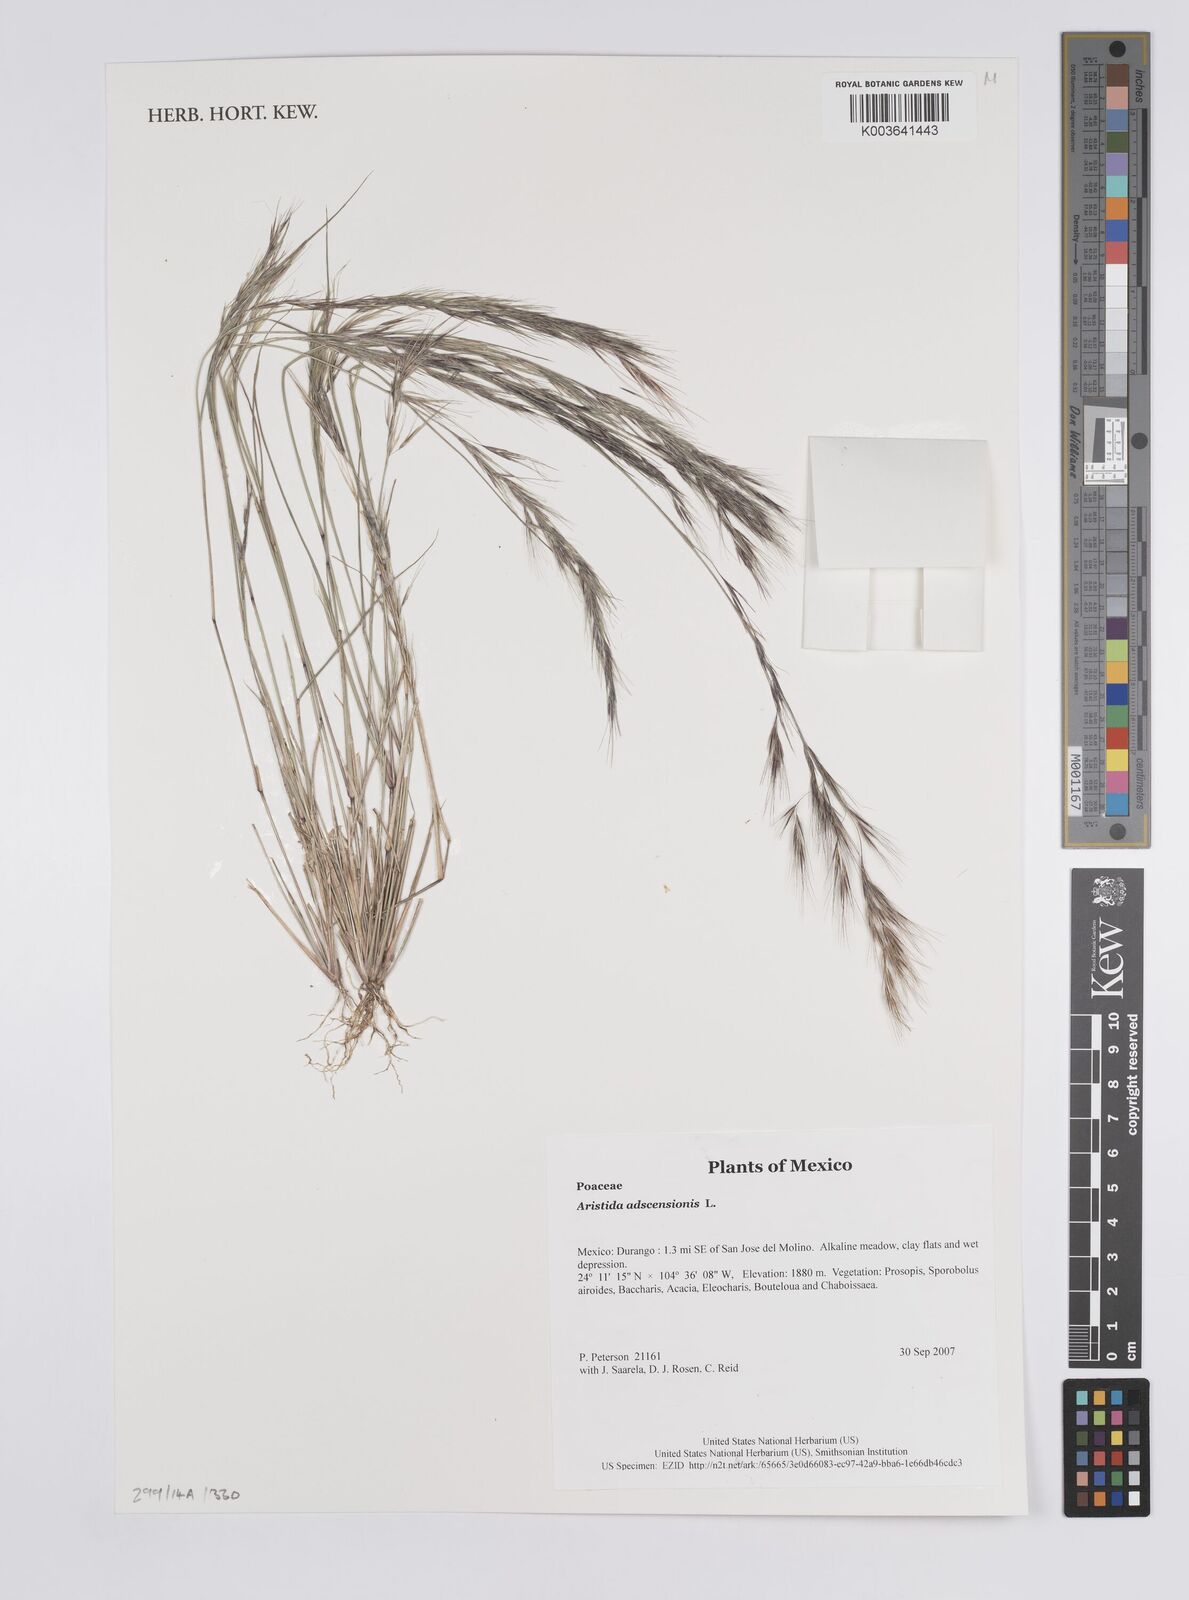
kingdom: Plantae
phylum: Tracheophyta
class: Liliopsida
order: Poales
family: Poaceae
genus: Aristida
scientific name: Aristida adscensionis
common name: Sixweeks threeawn
